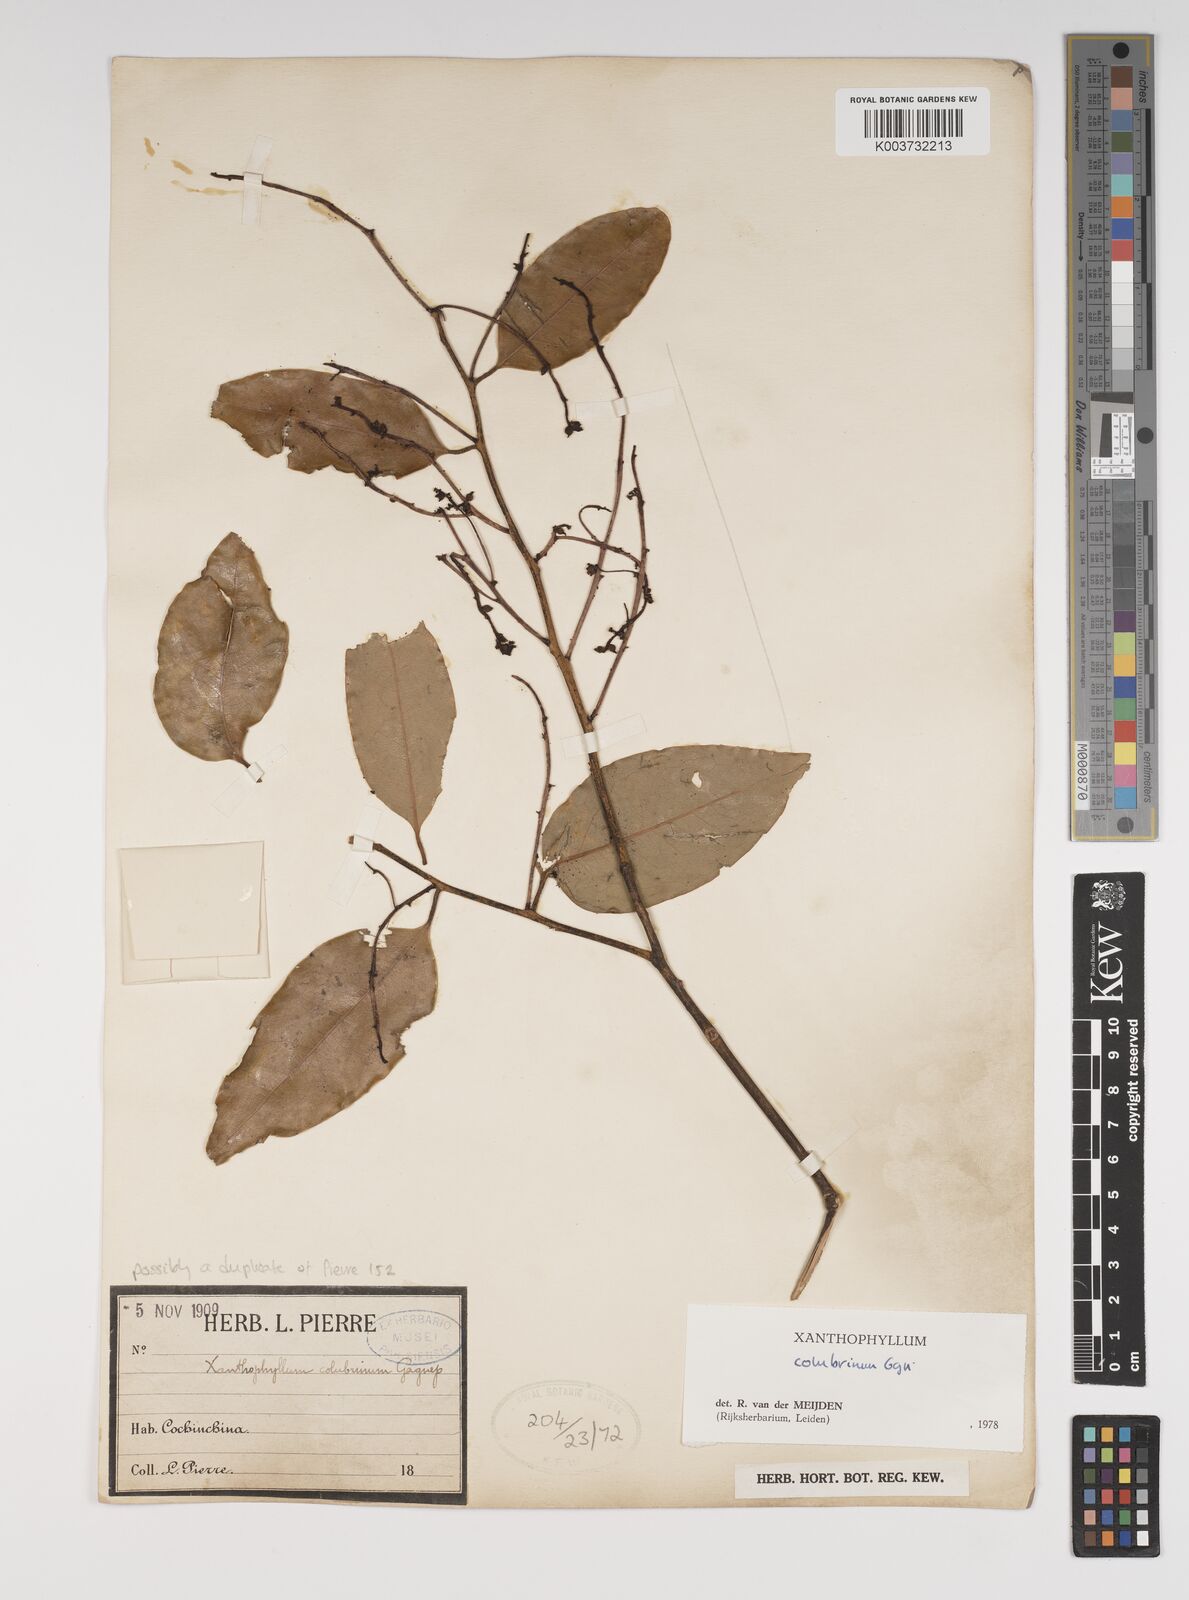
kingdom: Plantae
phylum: Tracheophyta
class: Magnoliopsida
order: Fabales
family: Polygalaceae
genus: Xanthophyllum
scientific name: Xanthophyllum colubrinum
